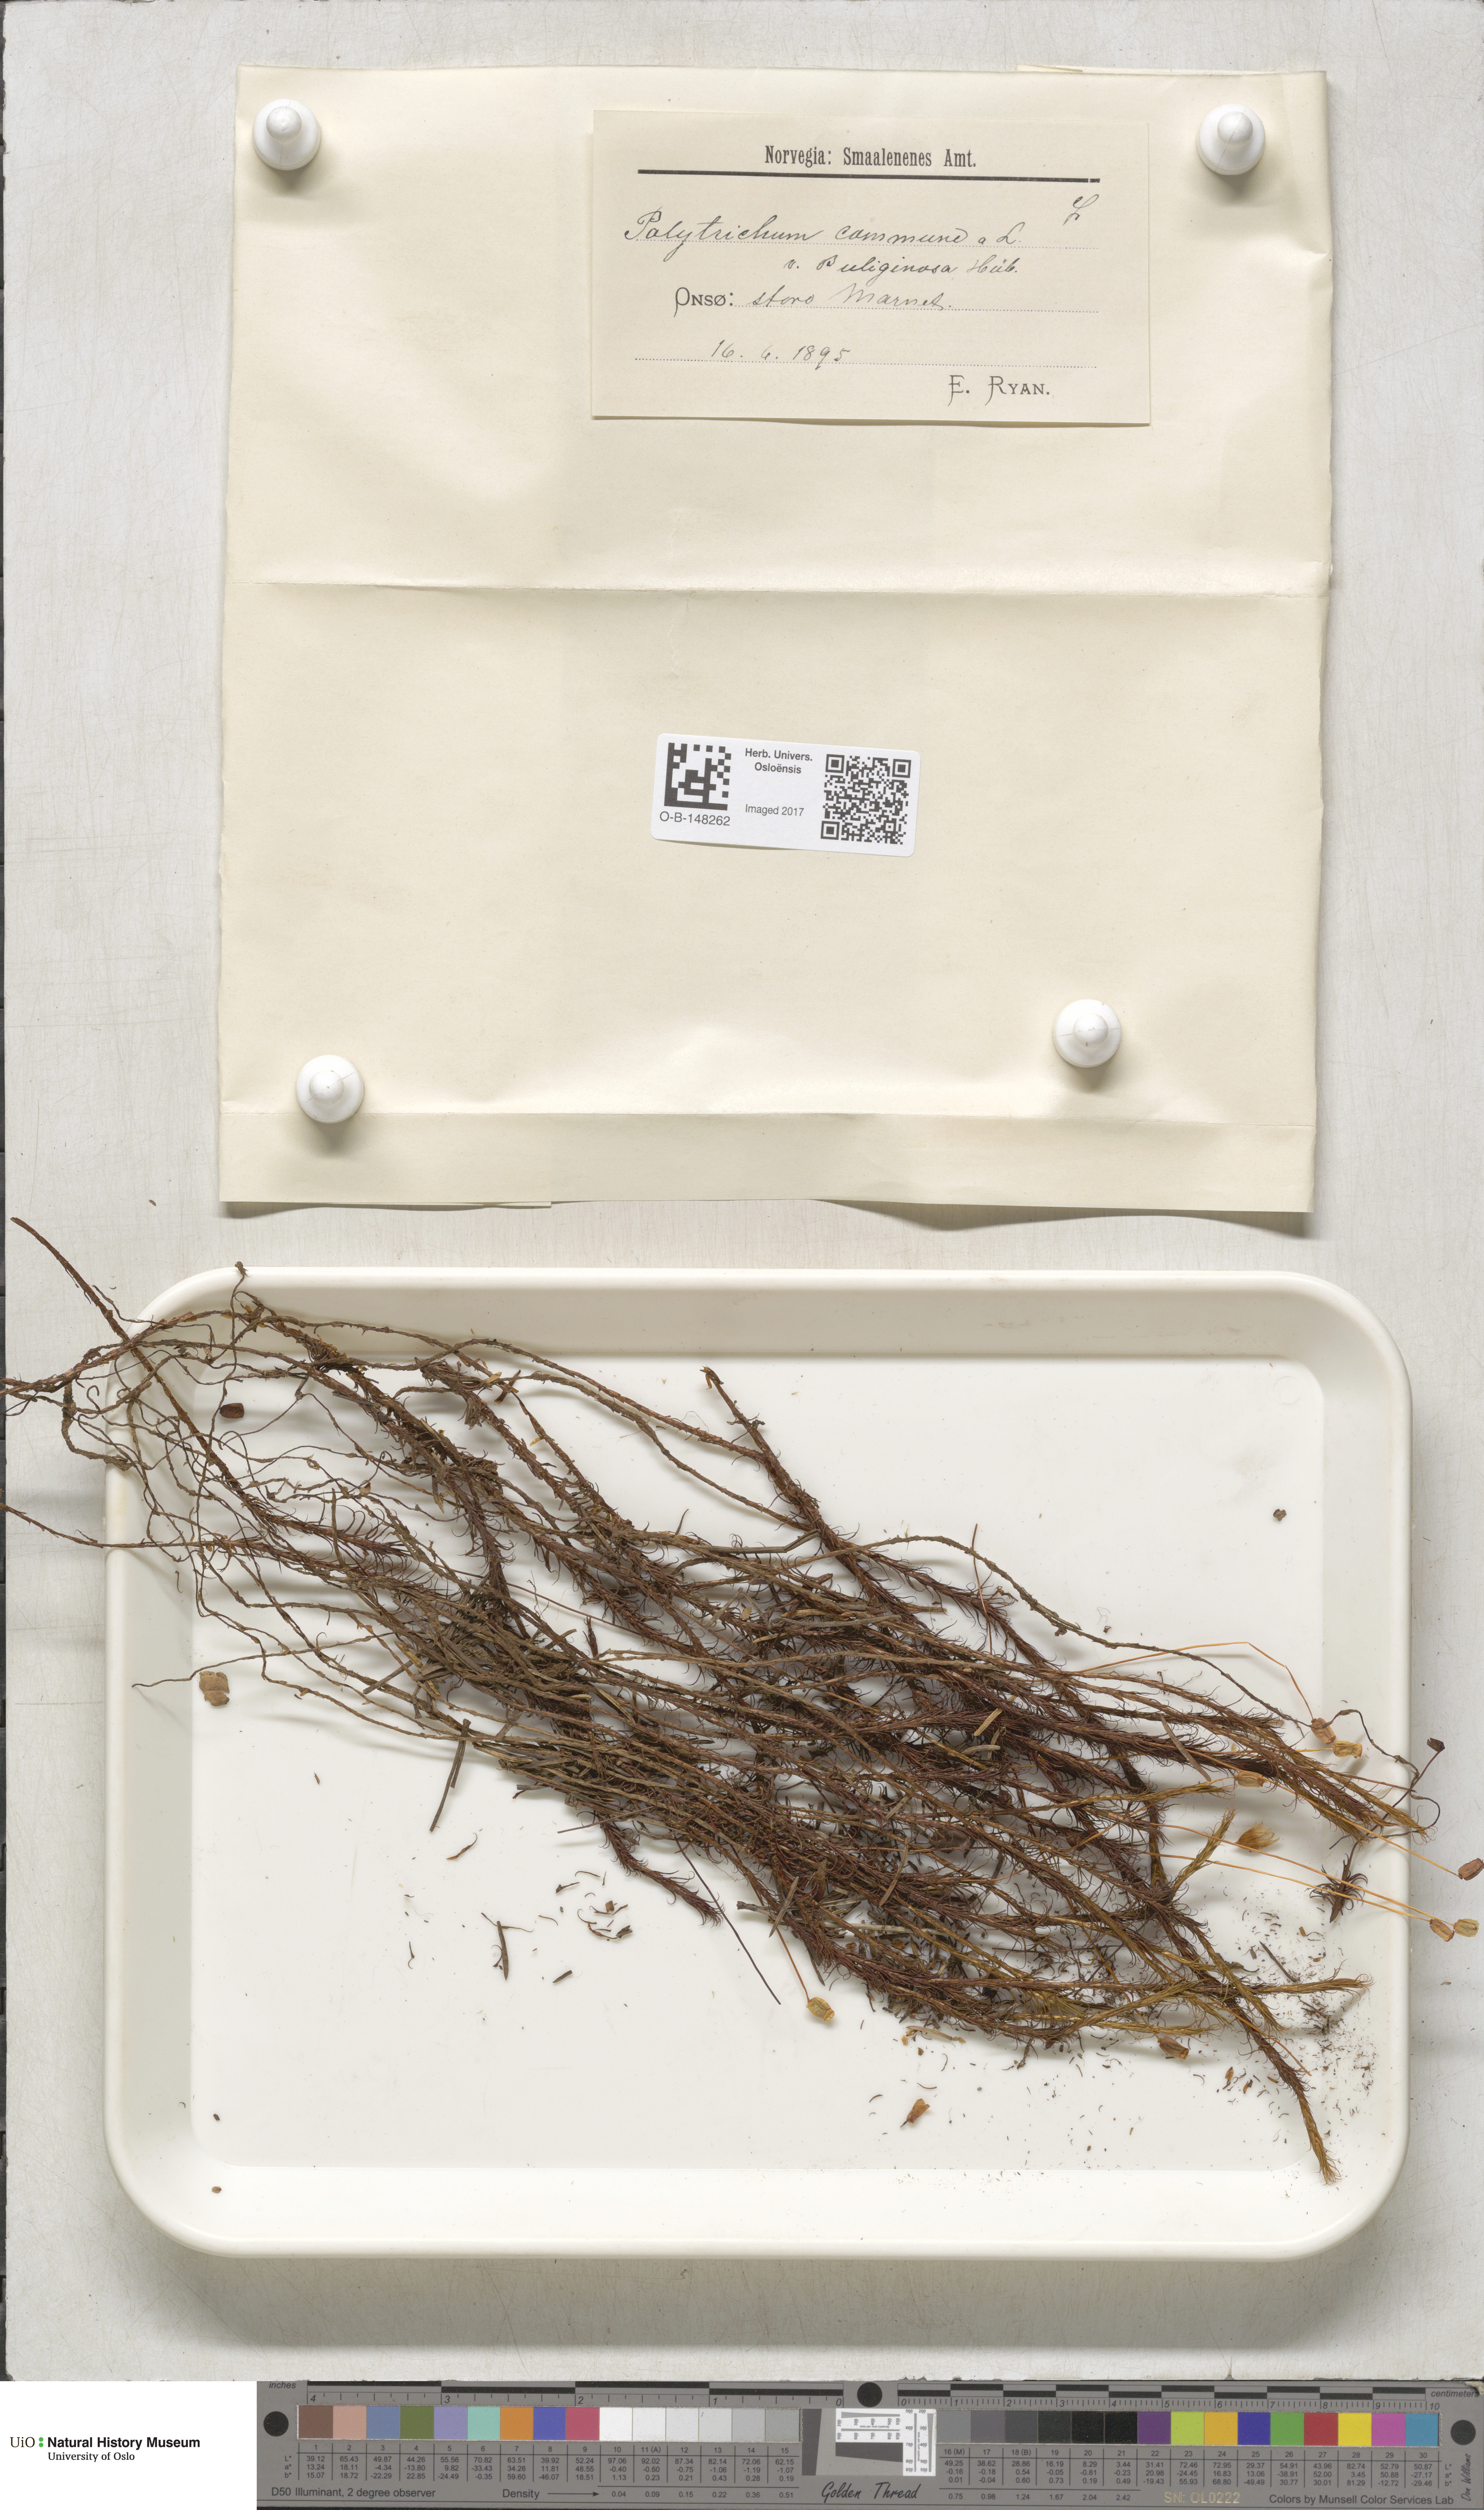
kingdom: Plantae
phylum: Bryophyta
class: Polytrichopsida
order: Polytrichales
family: Polytrichaceae
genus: Polytrichum
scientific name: Polytrichum commune
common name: Common haircap
